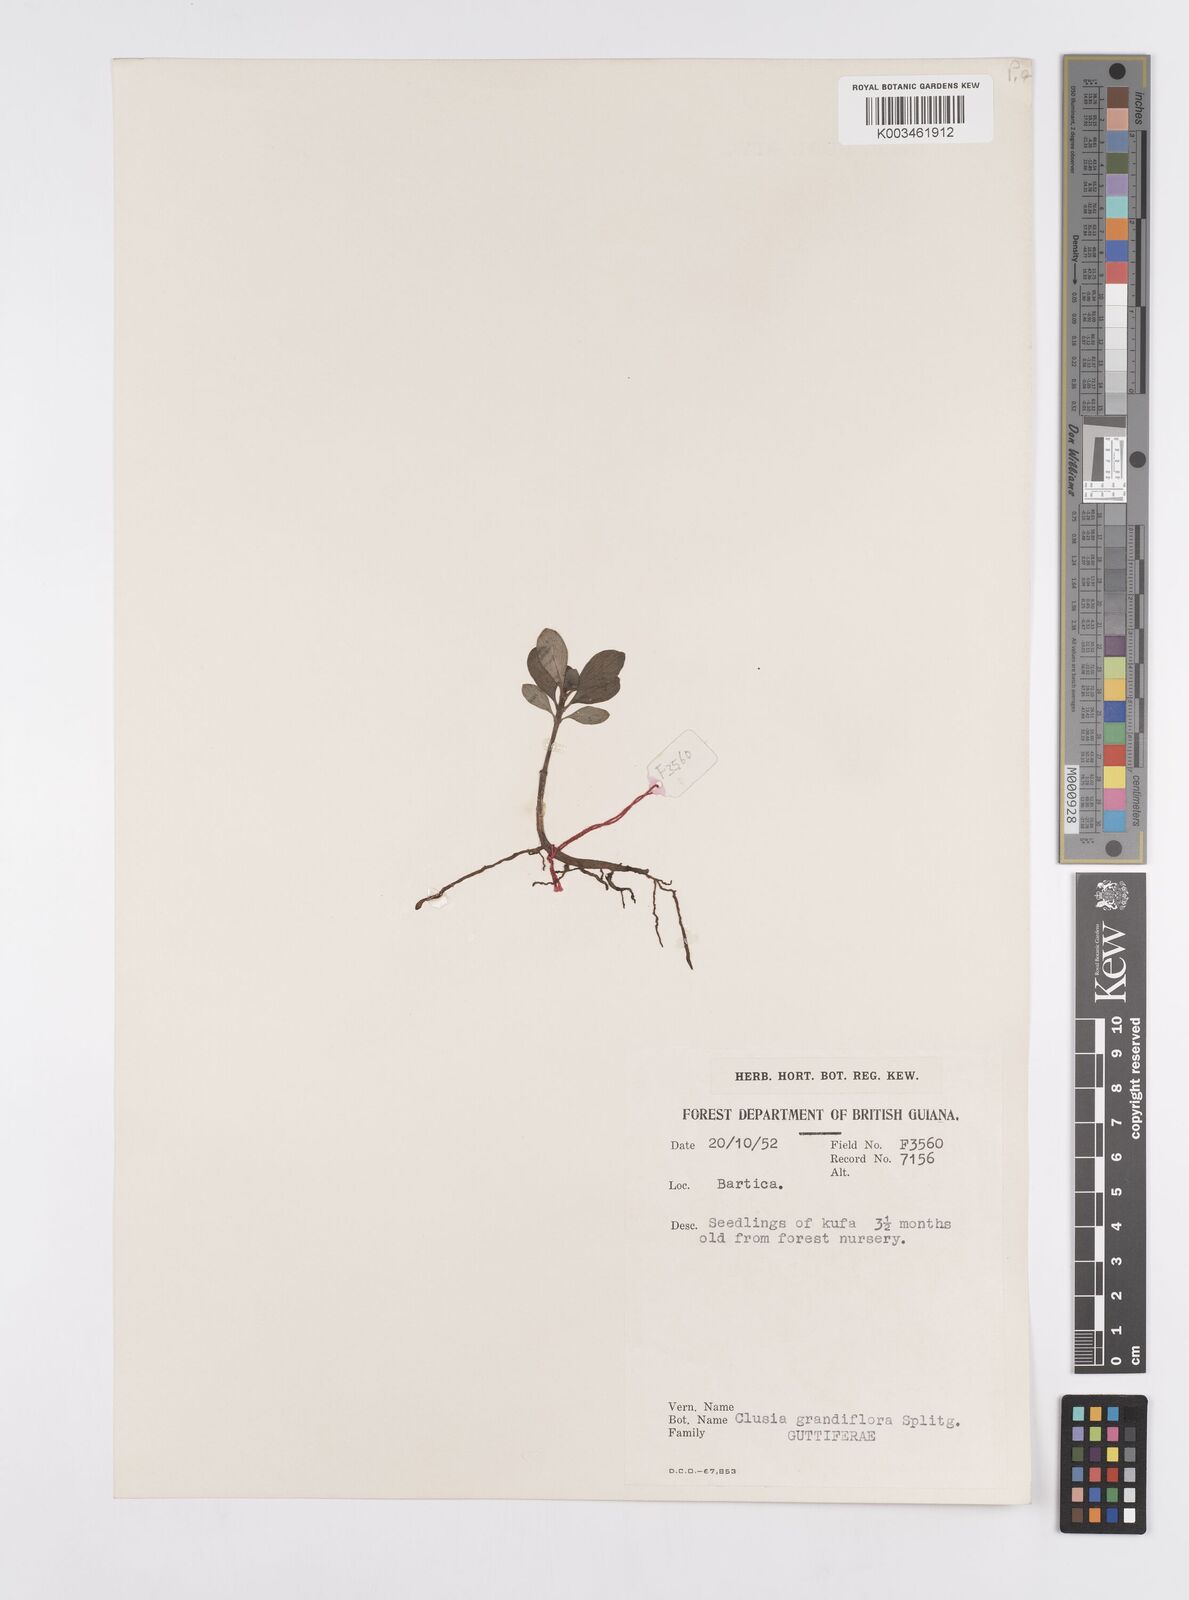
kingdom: Plantae
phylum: Tracheophyta
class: Magnoliopsida
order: Malpighiales
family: Clusiaceae
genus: Clusia
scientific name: Clusia grandiflora
